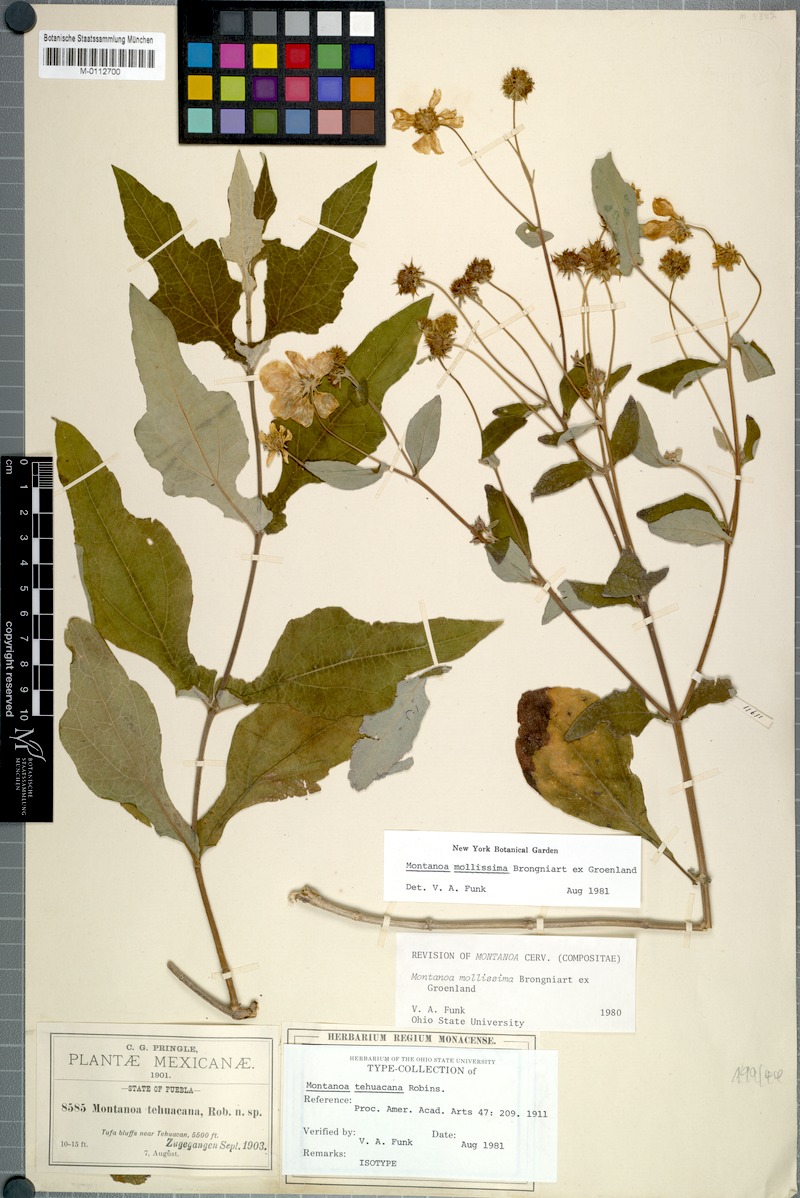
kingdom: Plantae
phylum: Tracheophyta
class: Magnoliopsida
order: Asterales
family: Asteraceae
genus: Montanoa
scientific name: Montanoa tehuacana
